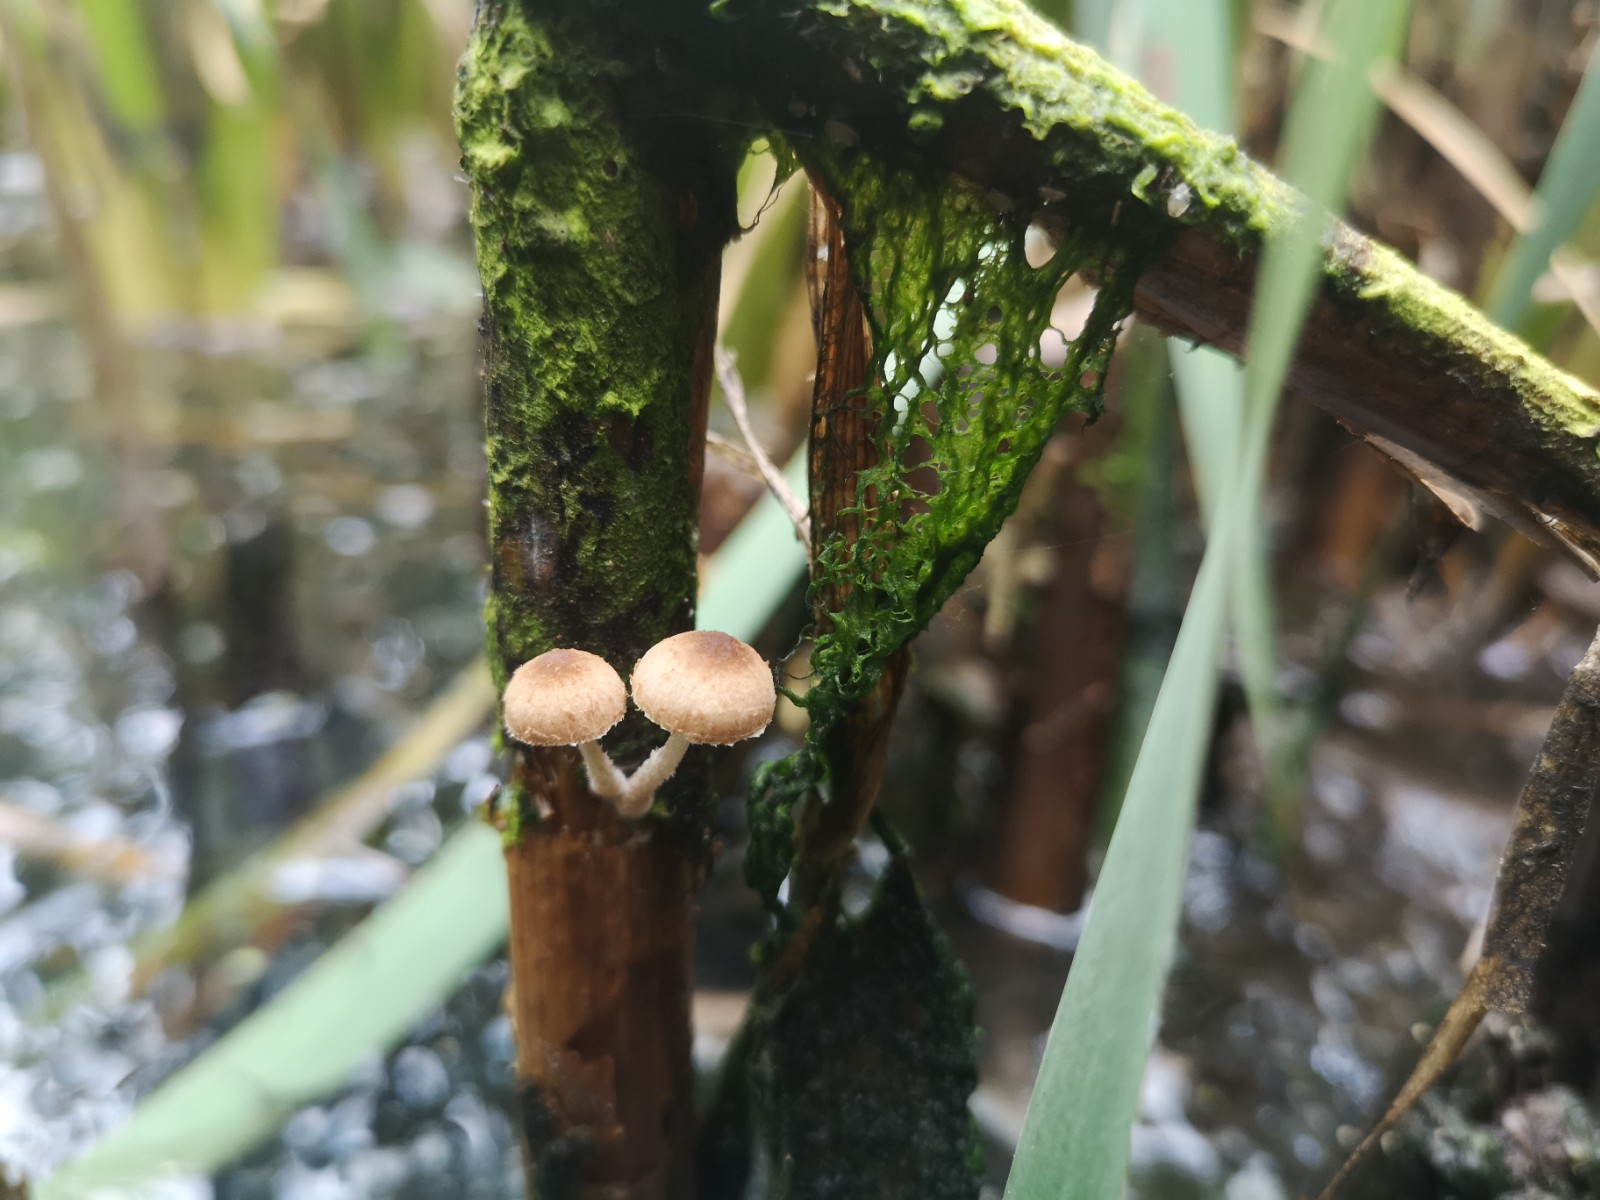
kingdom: Fungi
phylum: Basidiomycota
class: Agaricomycetes
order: Agaricales
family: Psathyrellaceae
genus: Candolleomyces
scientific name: Candolleomyces typhae
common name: dunhammer-mørkhat
